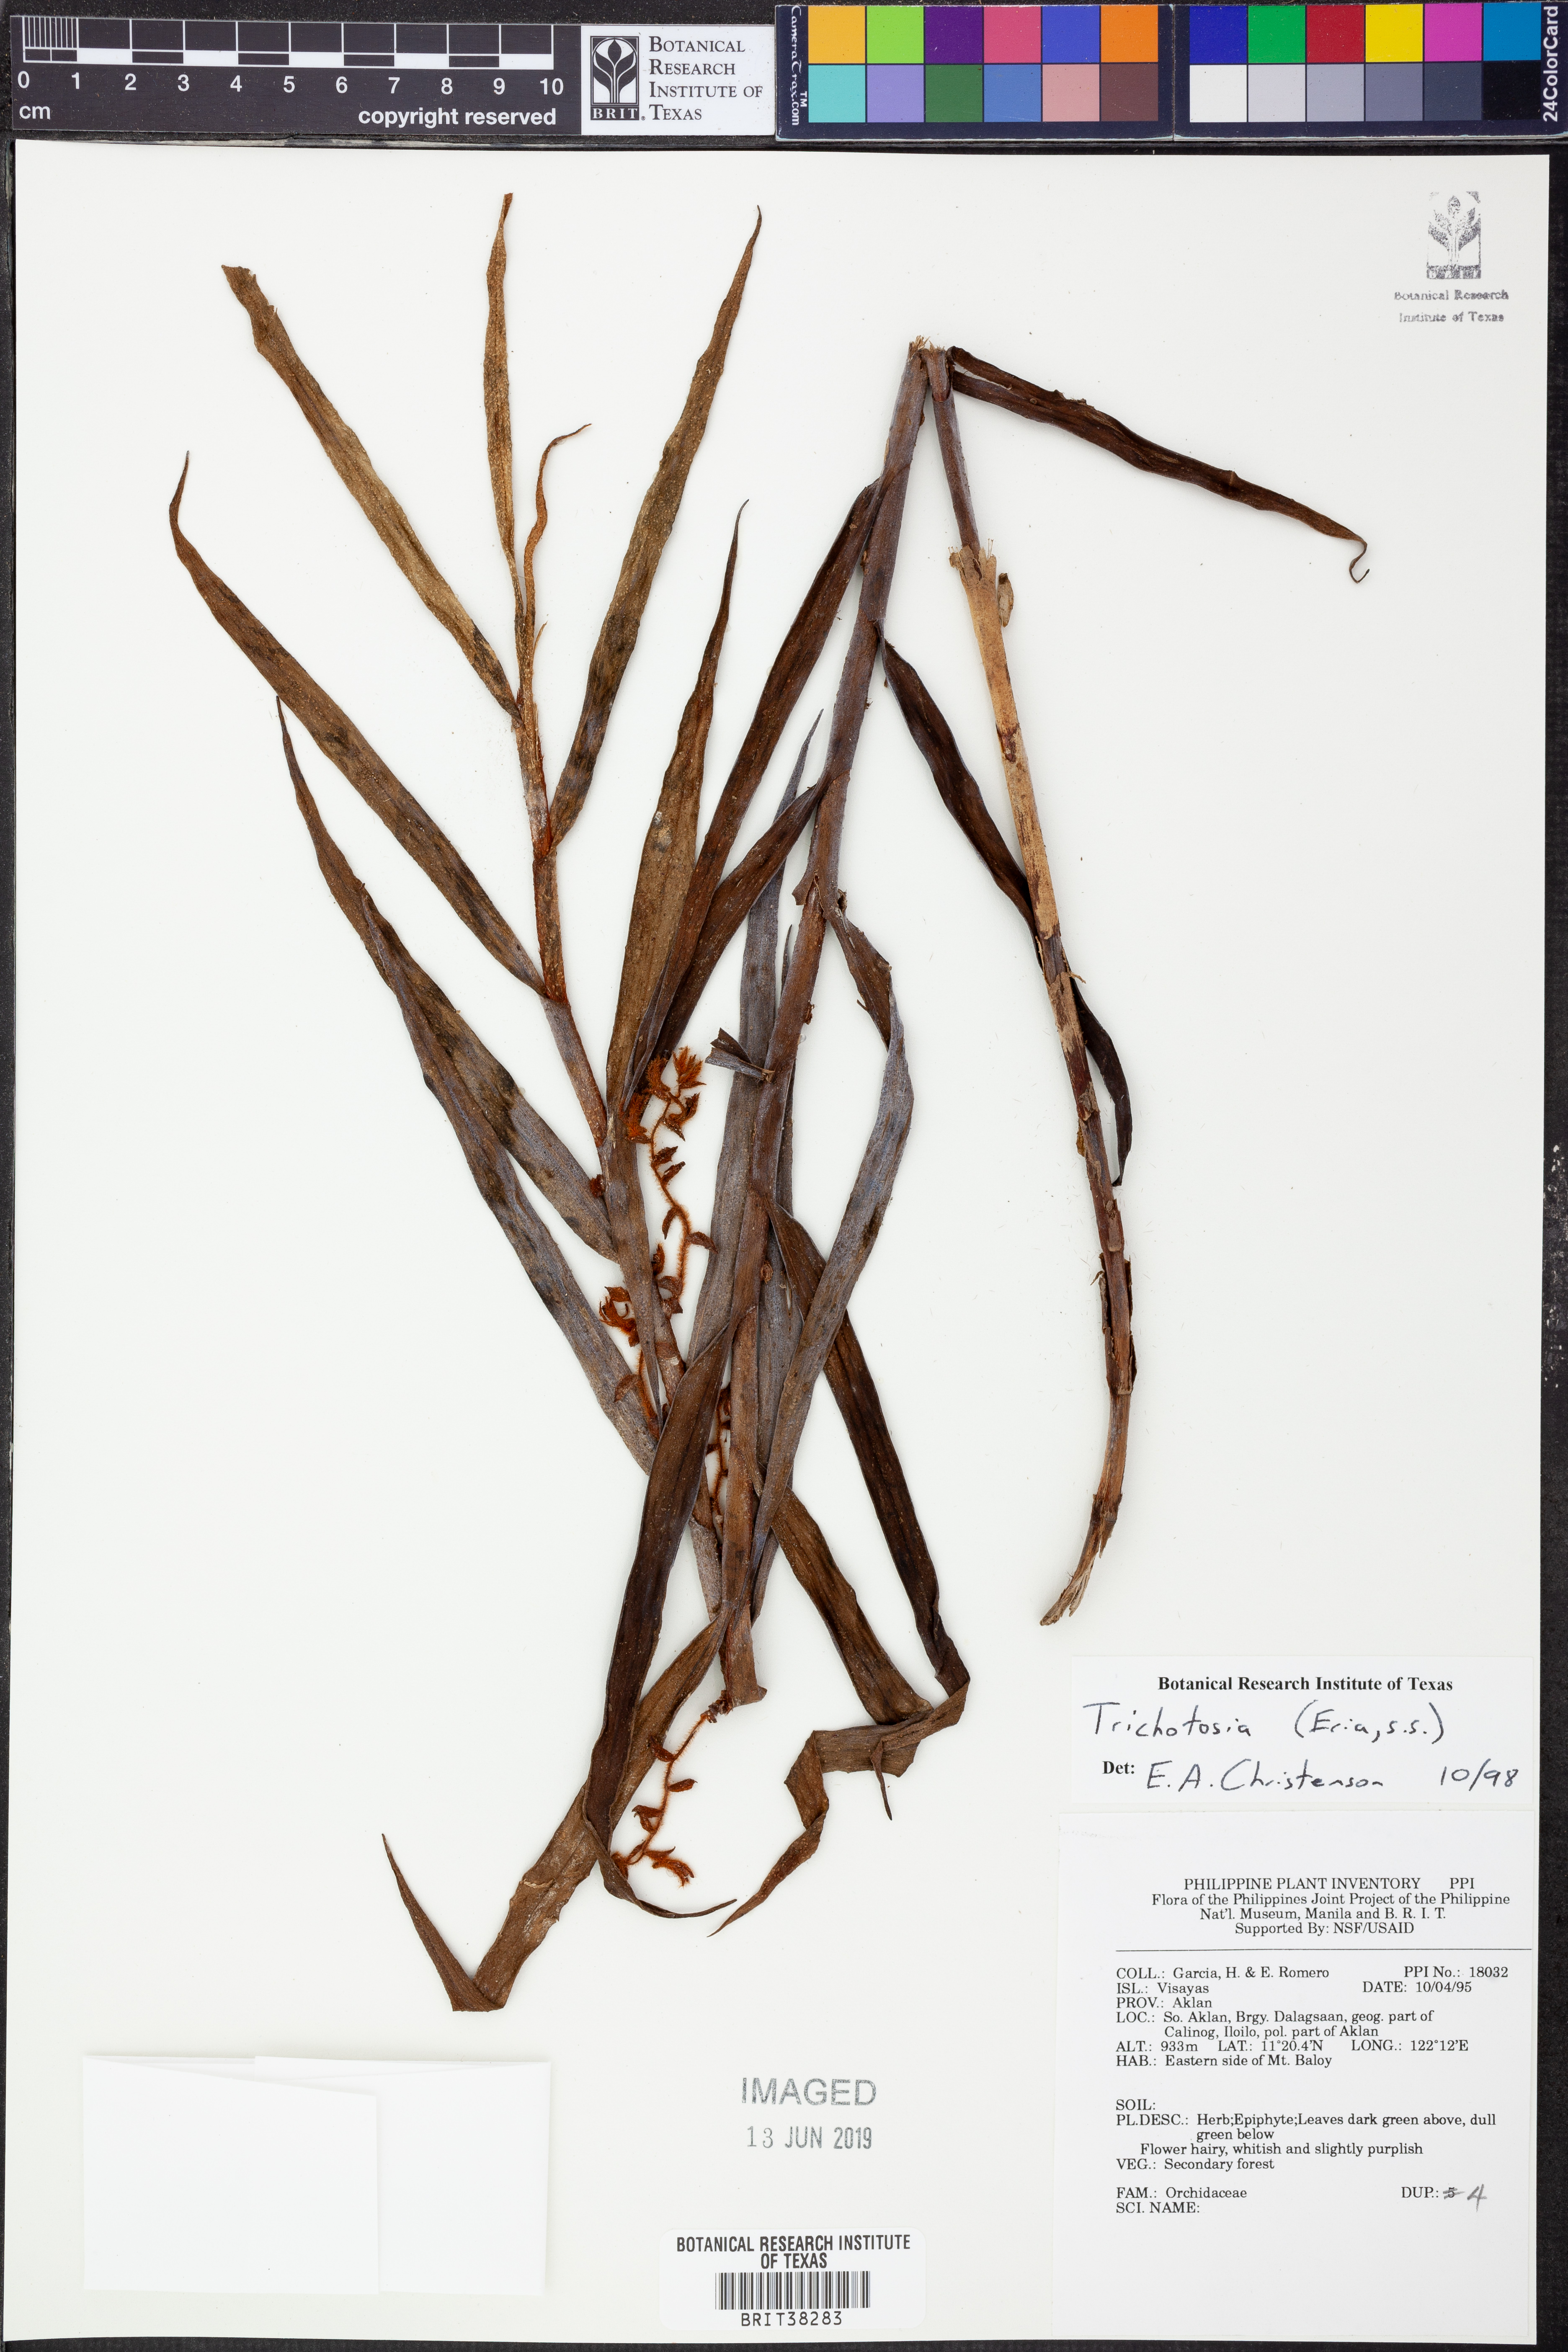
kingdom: Plantae
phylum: Tracheophyta
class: Liliopsida
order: Asparagales
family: Orchidaceae
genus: Trichotosia
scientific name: Trichotosia
